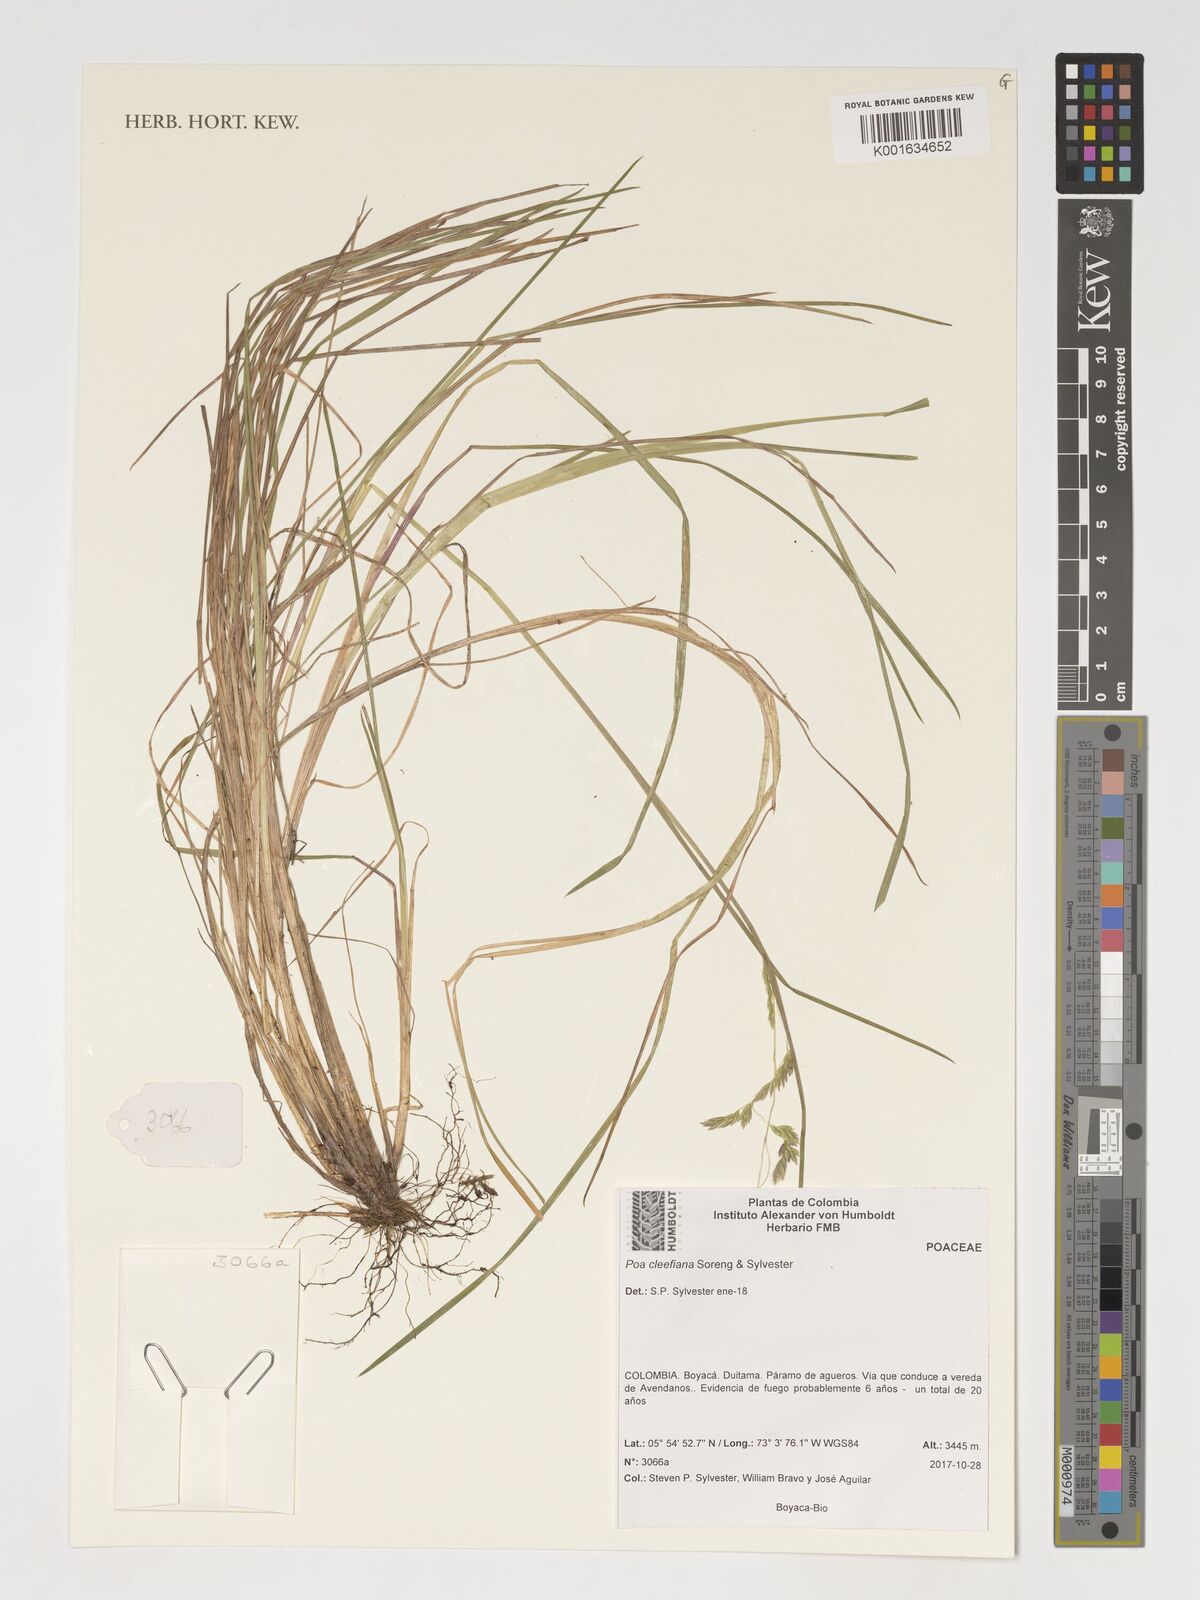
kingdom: Plantae
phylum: Tracheophyta
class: Liliopsida
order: Poales
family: Poaceae
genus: Poa
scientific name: Poa
